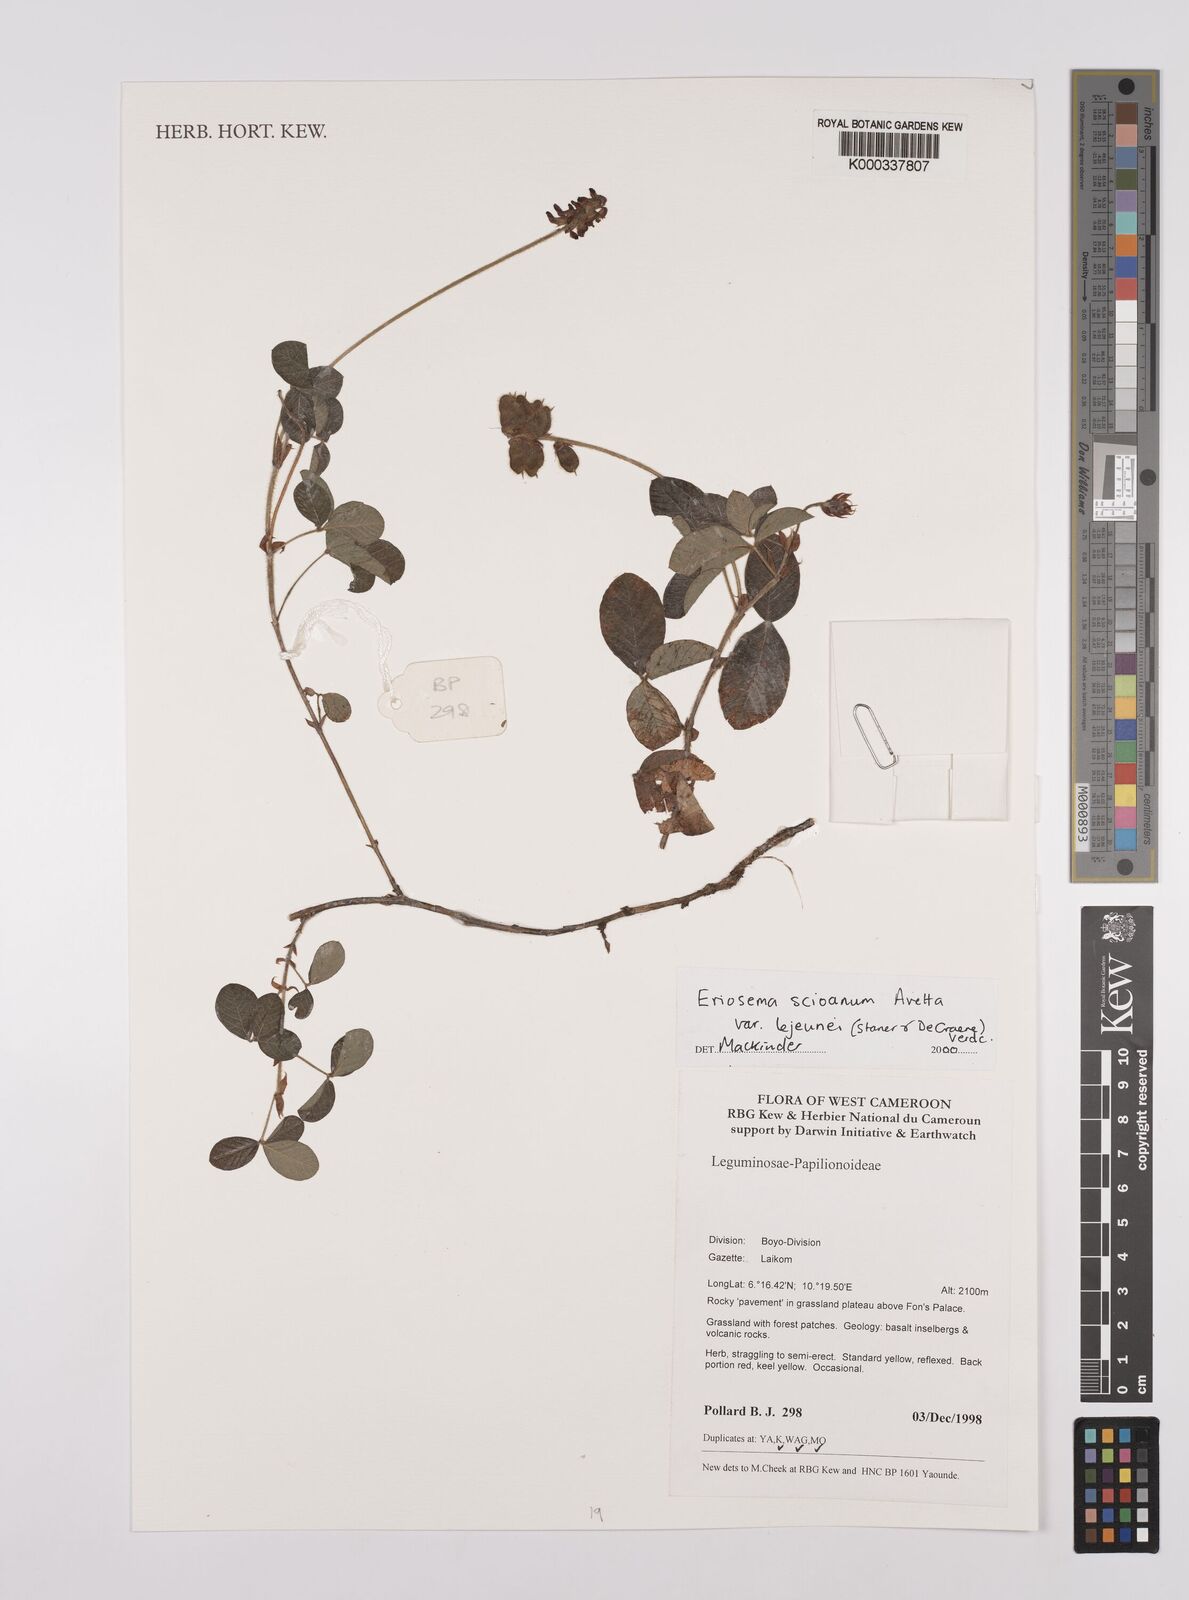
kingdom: Plantae
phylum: Tracheophyta
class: Magnoliopsida
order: Fabales
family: Fabaceae
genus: Eriosema
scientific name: Eriosema scioanum
